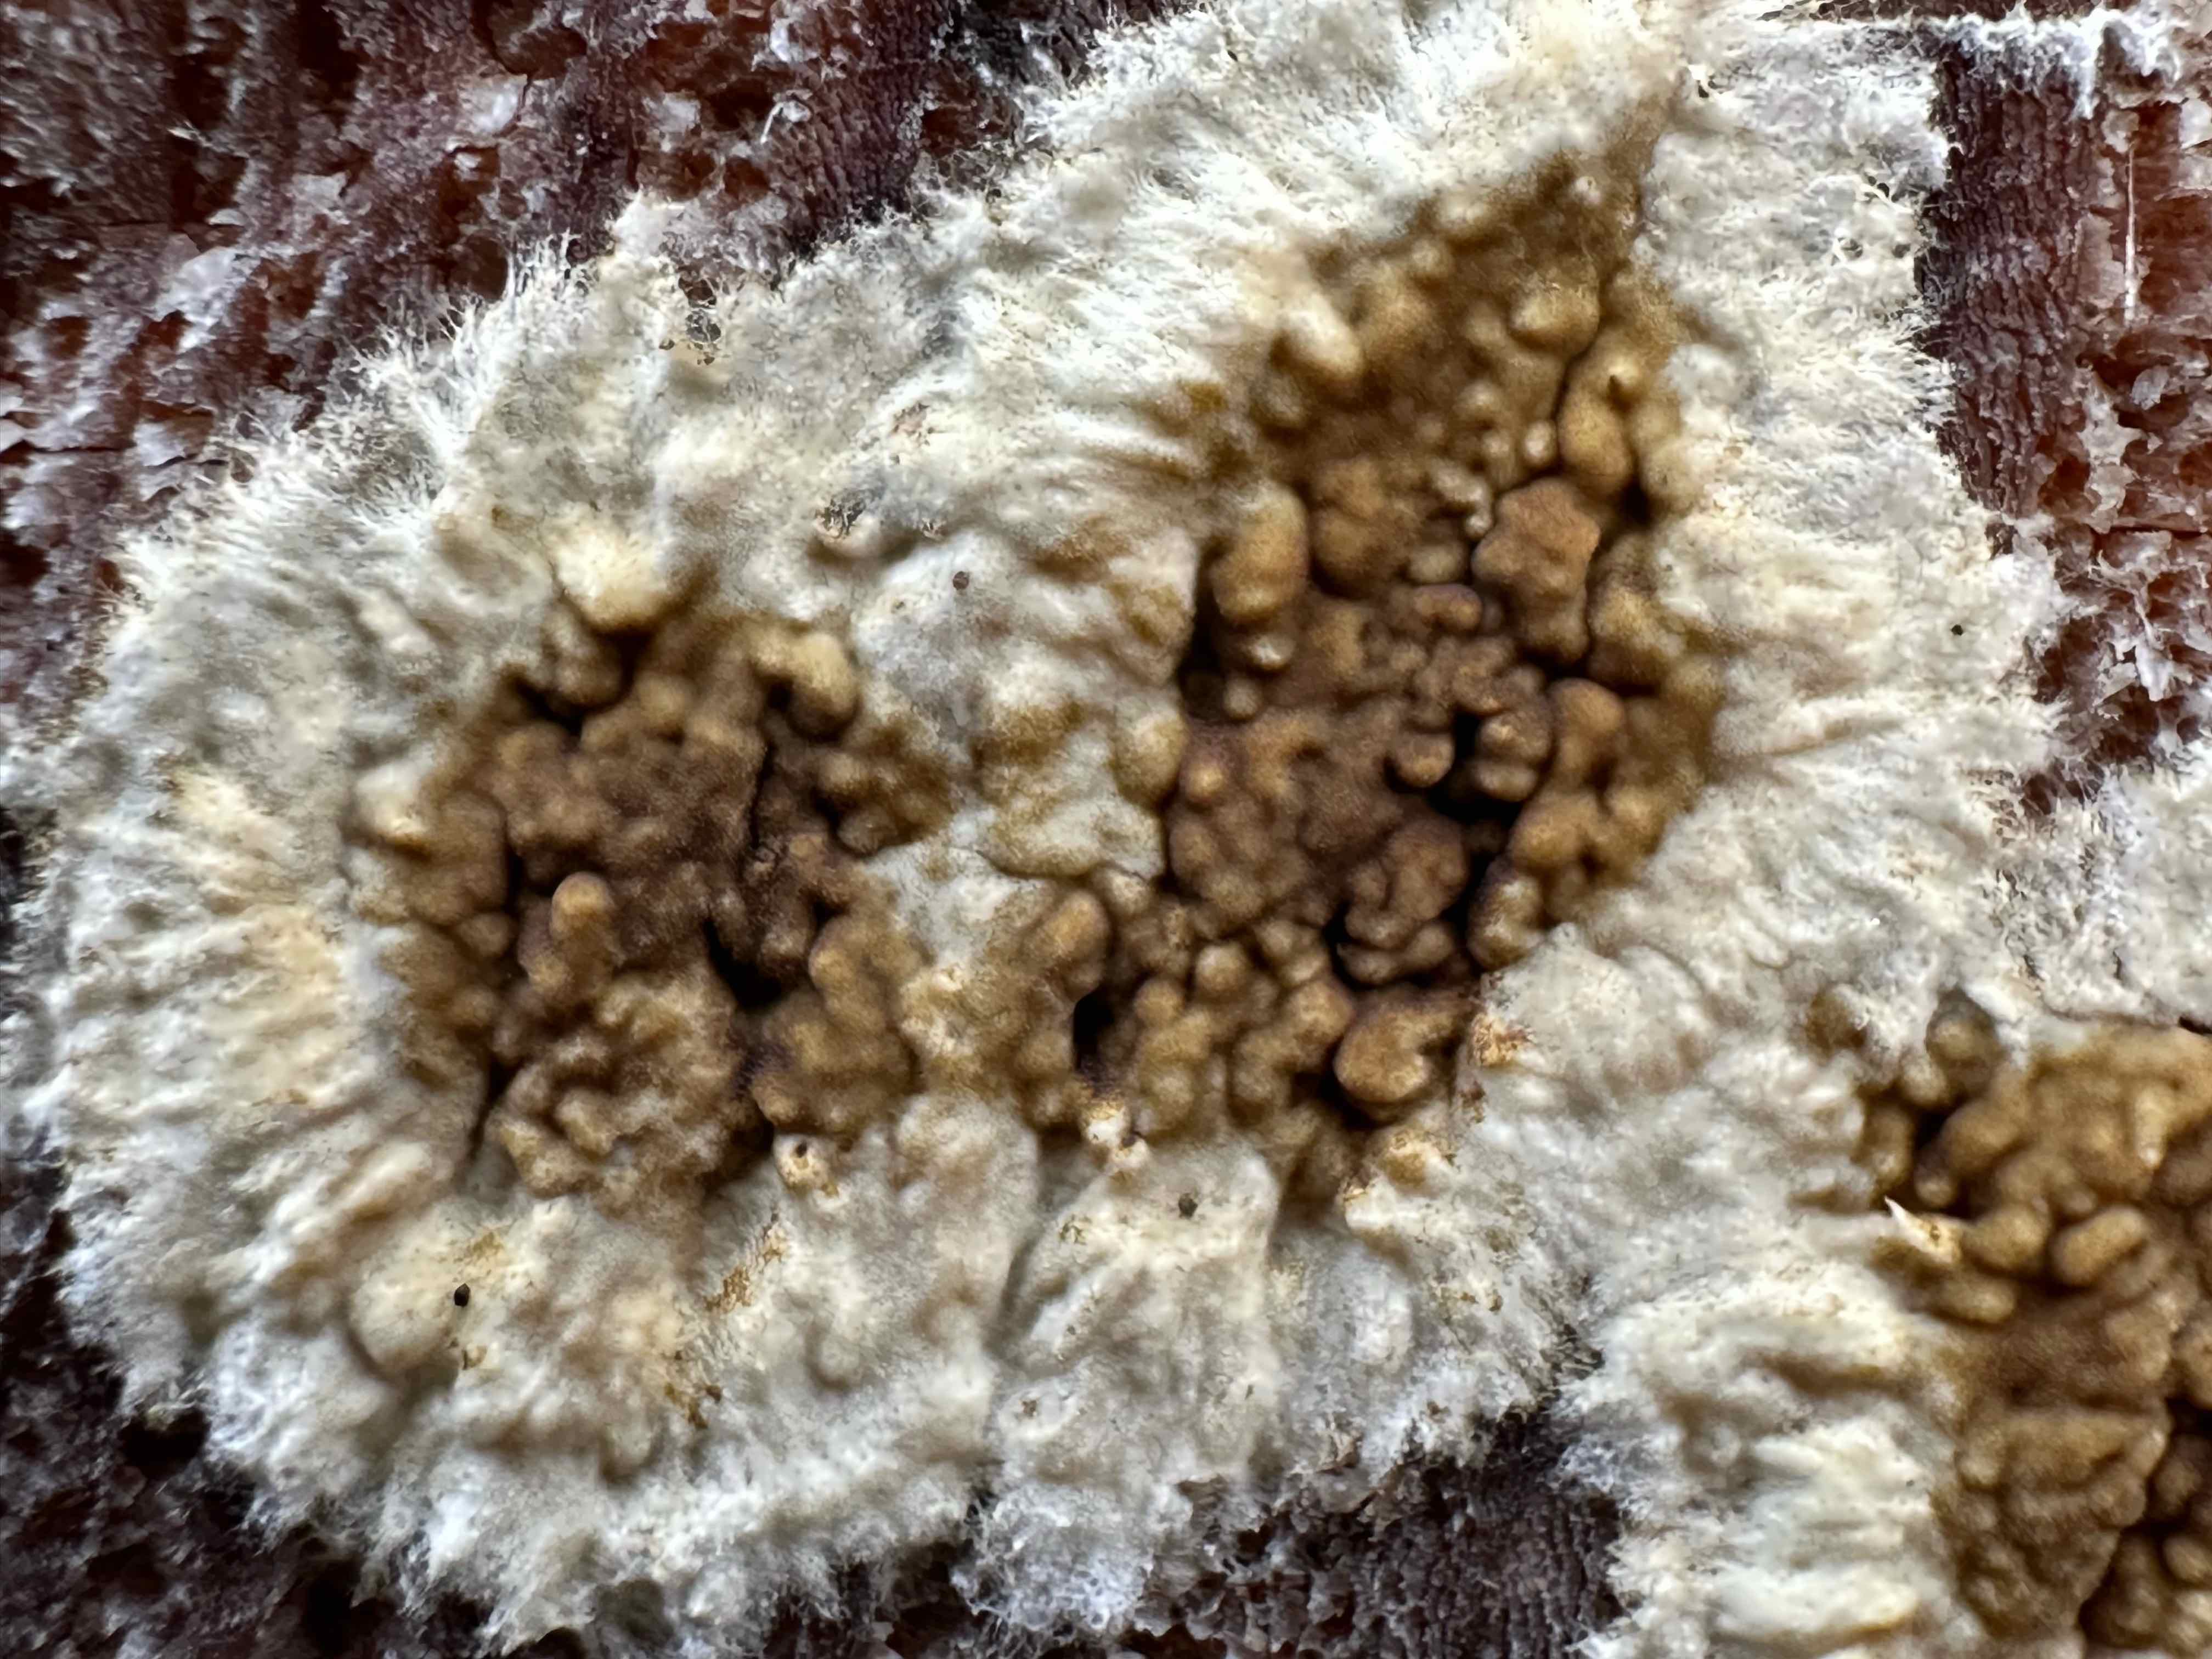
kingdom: Fungi
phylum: Basidiomycota
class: Agaricomycetes
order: Boletales
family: Coniophoraceae
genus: Coniophora
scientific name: Coniophora puteana
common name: gul tømmersvamp
